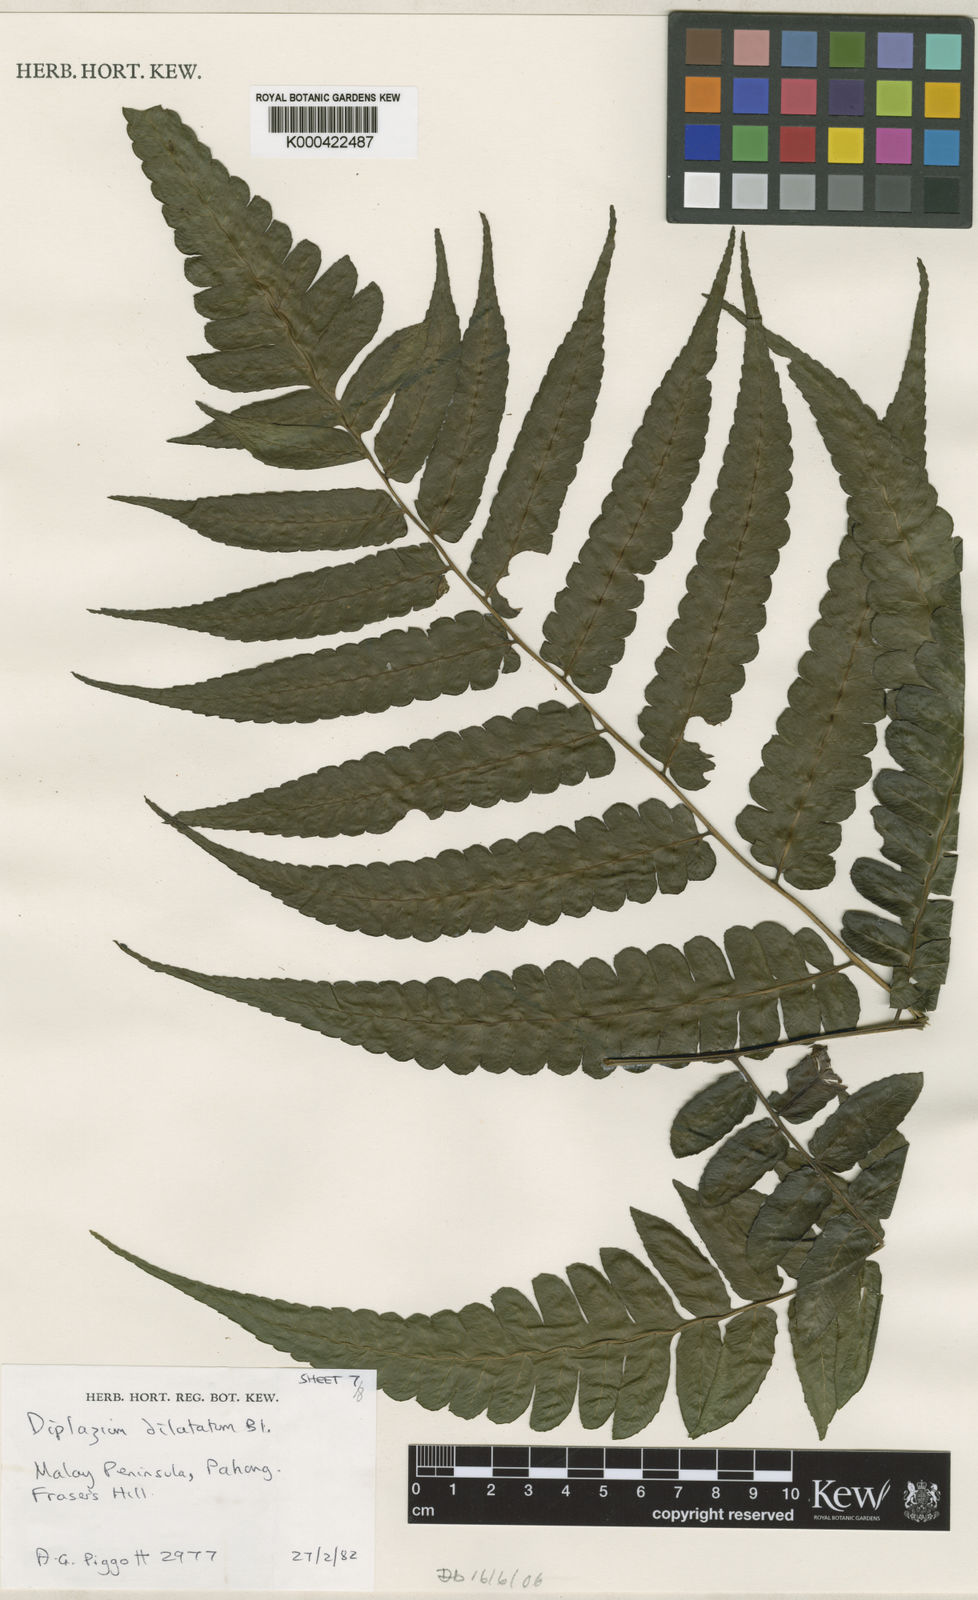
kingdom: Plantae
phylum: Tracheophyta
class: Polypodiopsida
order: Polypodiales
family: Athyriaceae
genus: Diplazium
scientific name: Diplazium dilatatum
